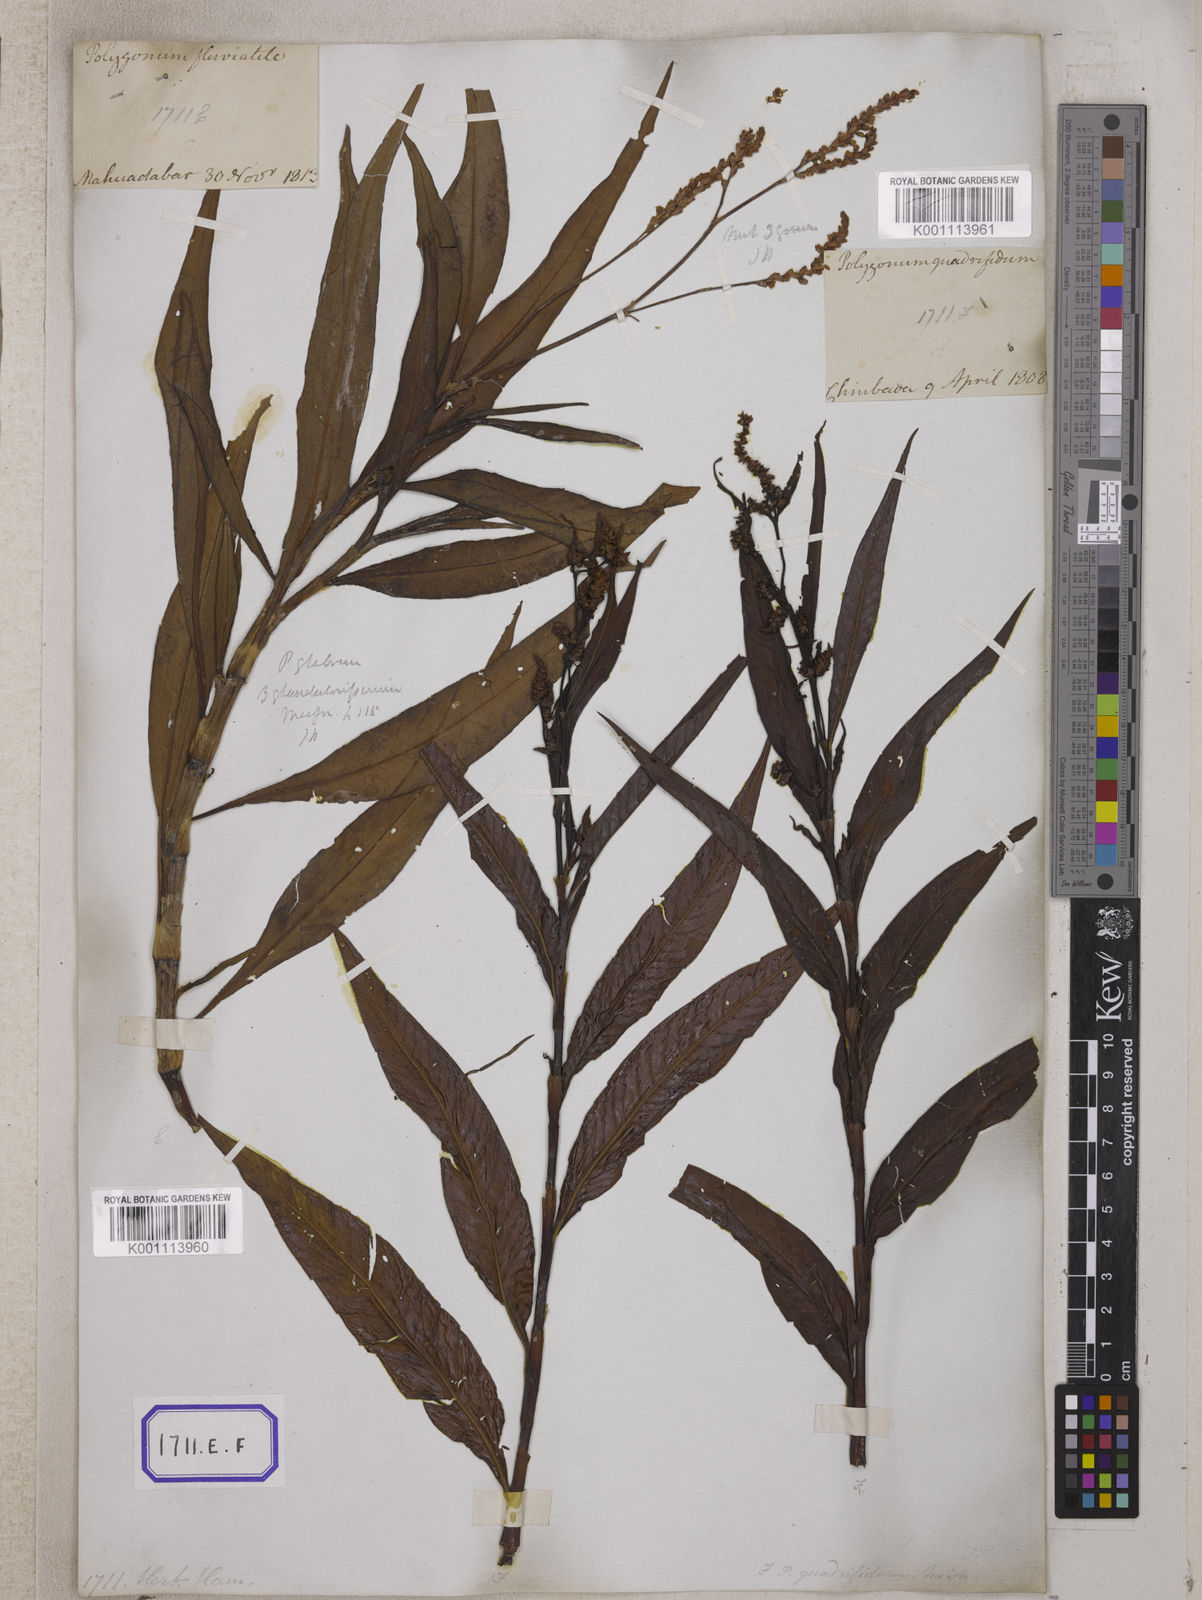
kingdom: Plantae
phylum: Tracheophyta
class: Magnoliopsida
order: Caryophyllales
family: Polygonaceae
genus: Persicaria
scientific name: Persicaria glabra
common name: Denseflower knotweed
